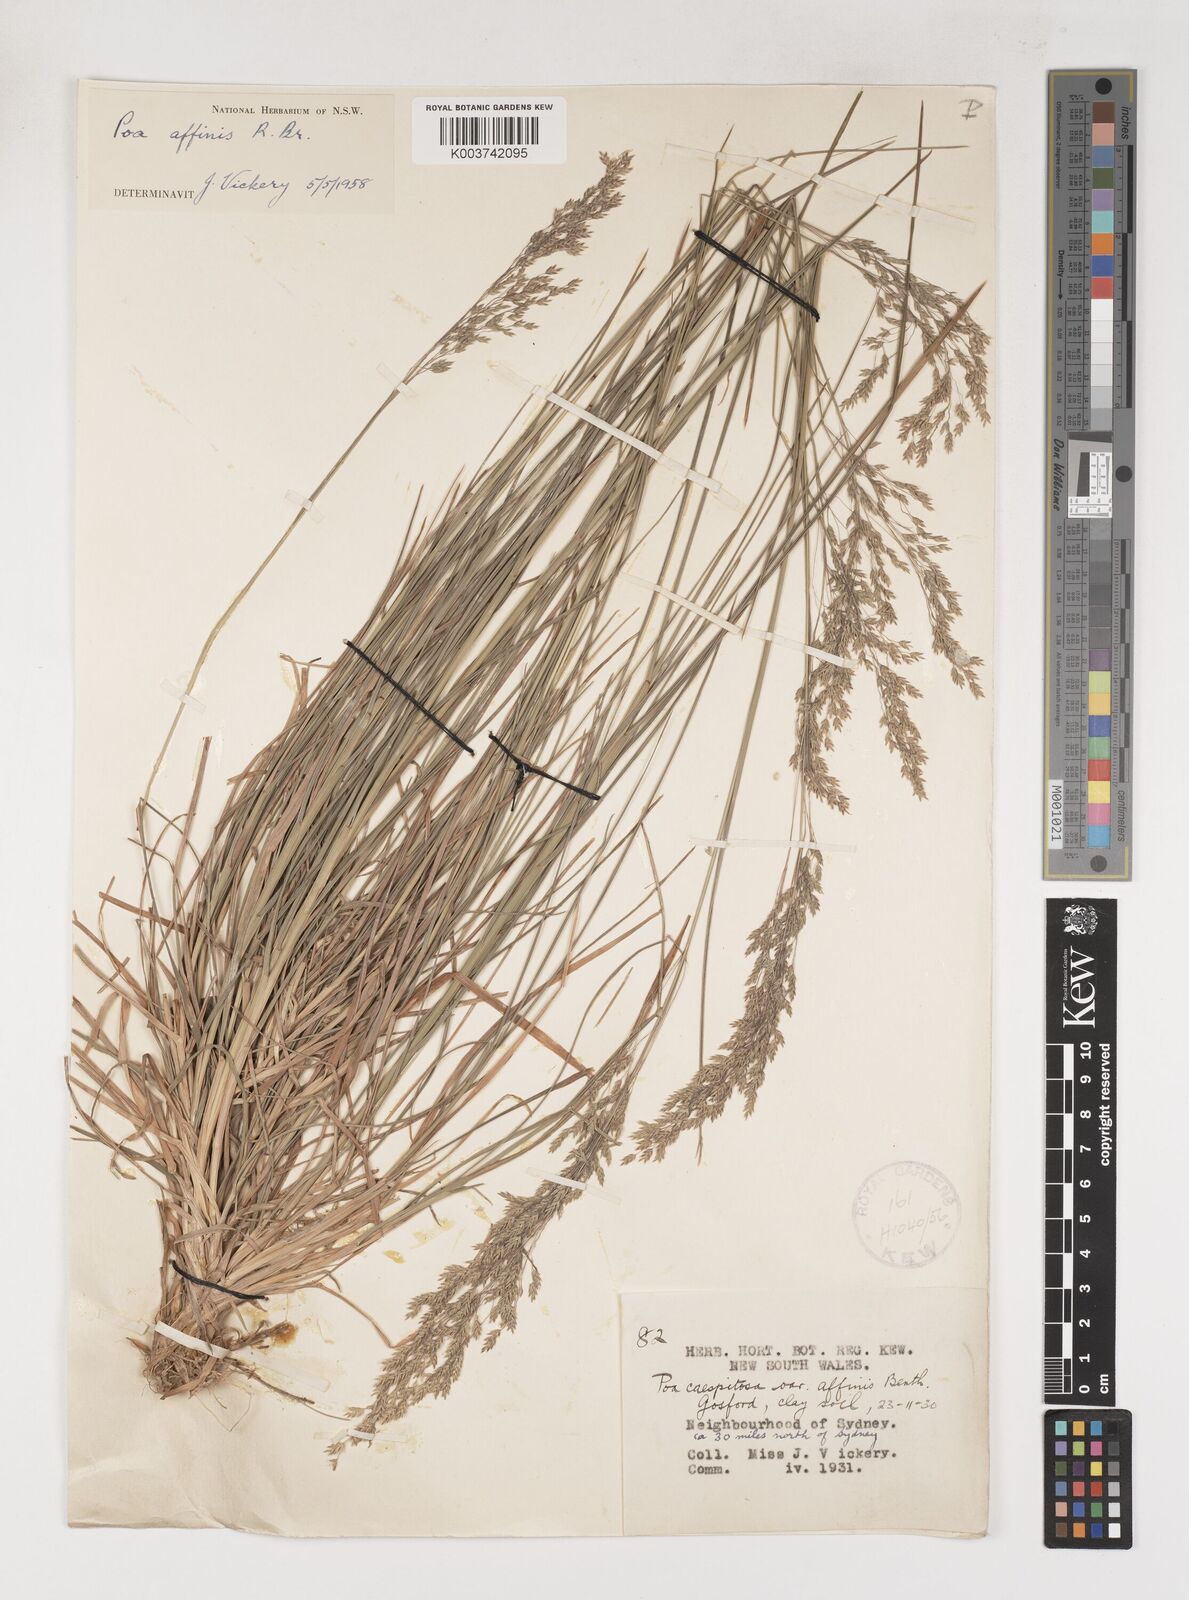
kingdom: Plantae
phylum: Tracheophyta
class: Liliopsida
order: Poales
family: Poaceae
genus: Poa
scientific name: Poa affinis
